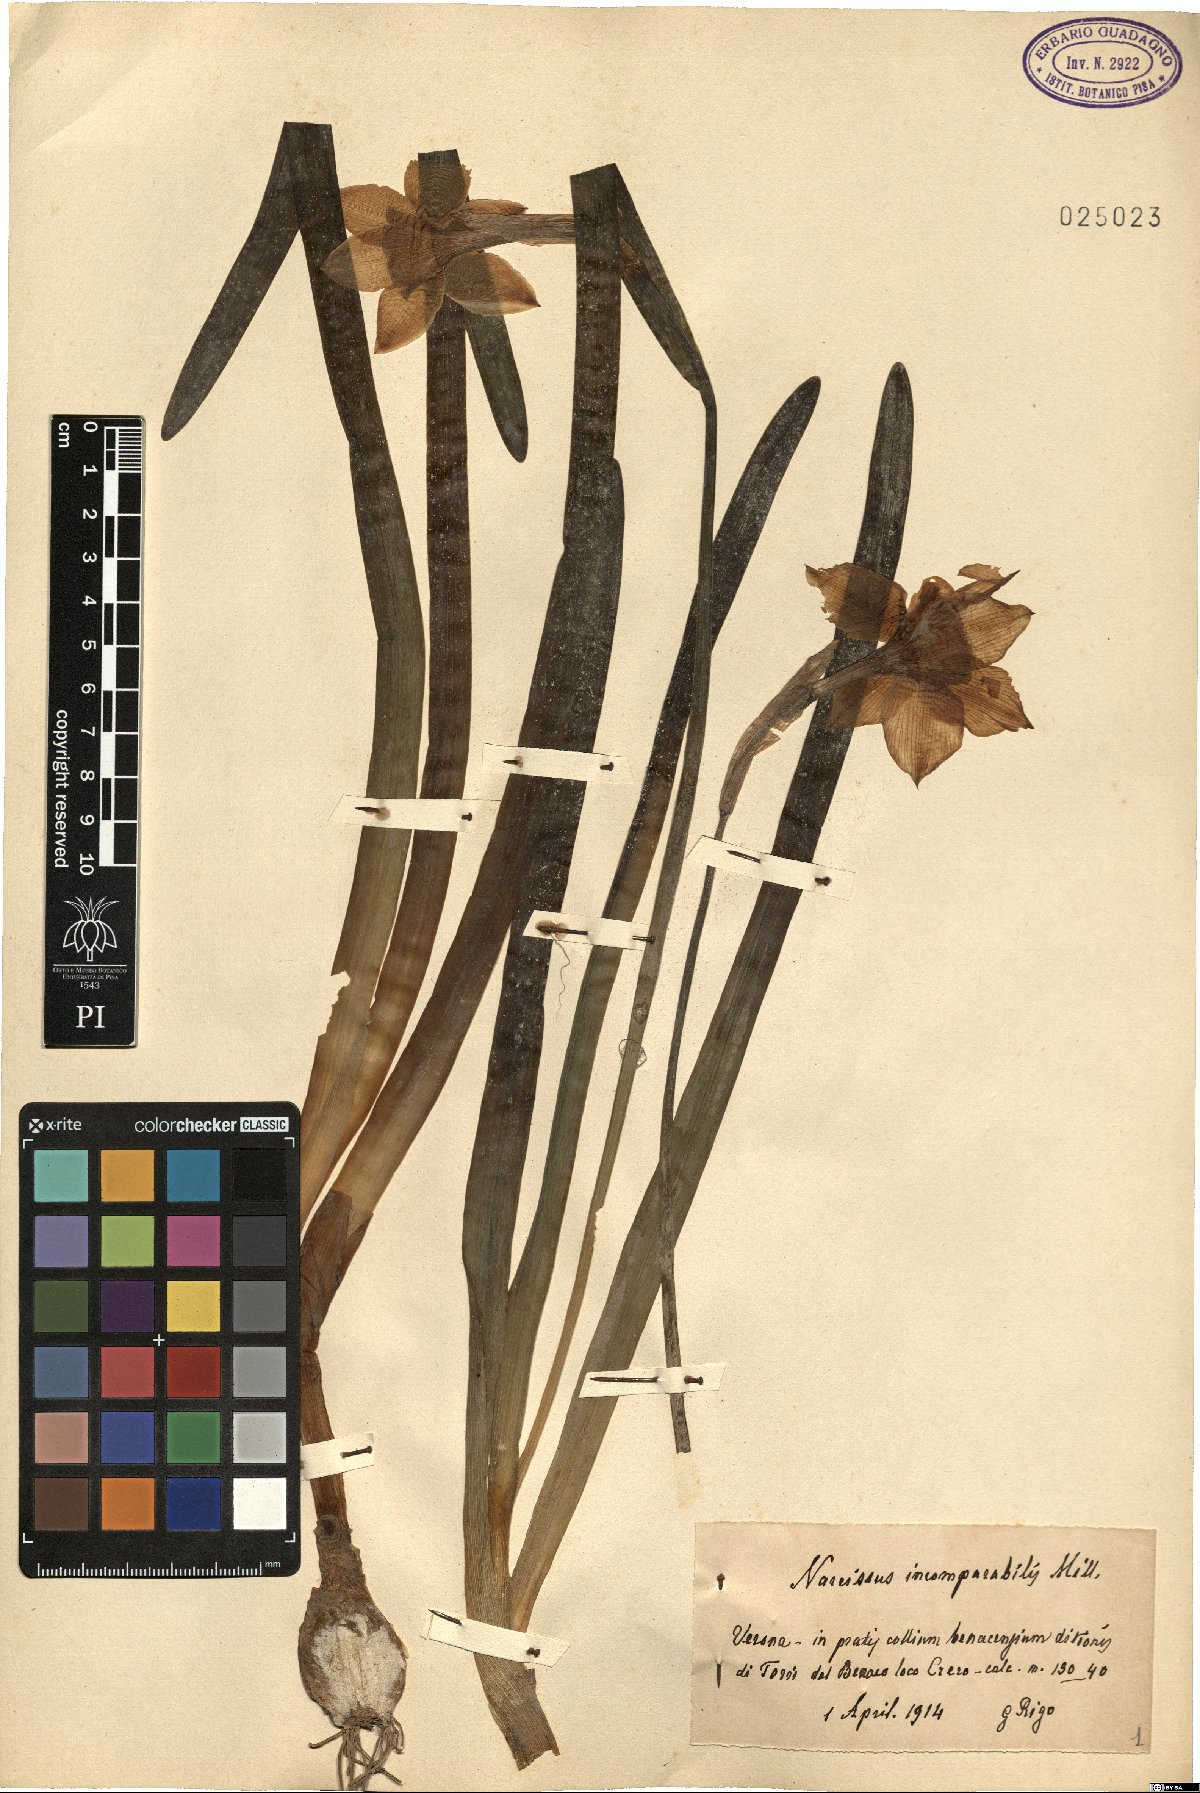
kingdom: Plantae
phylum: Tracheophyta
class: Liliopsida
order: Asparagales
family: Amaryllidaceae
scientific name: Amaryllidaceae
